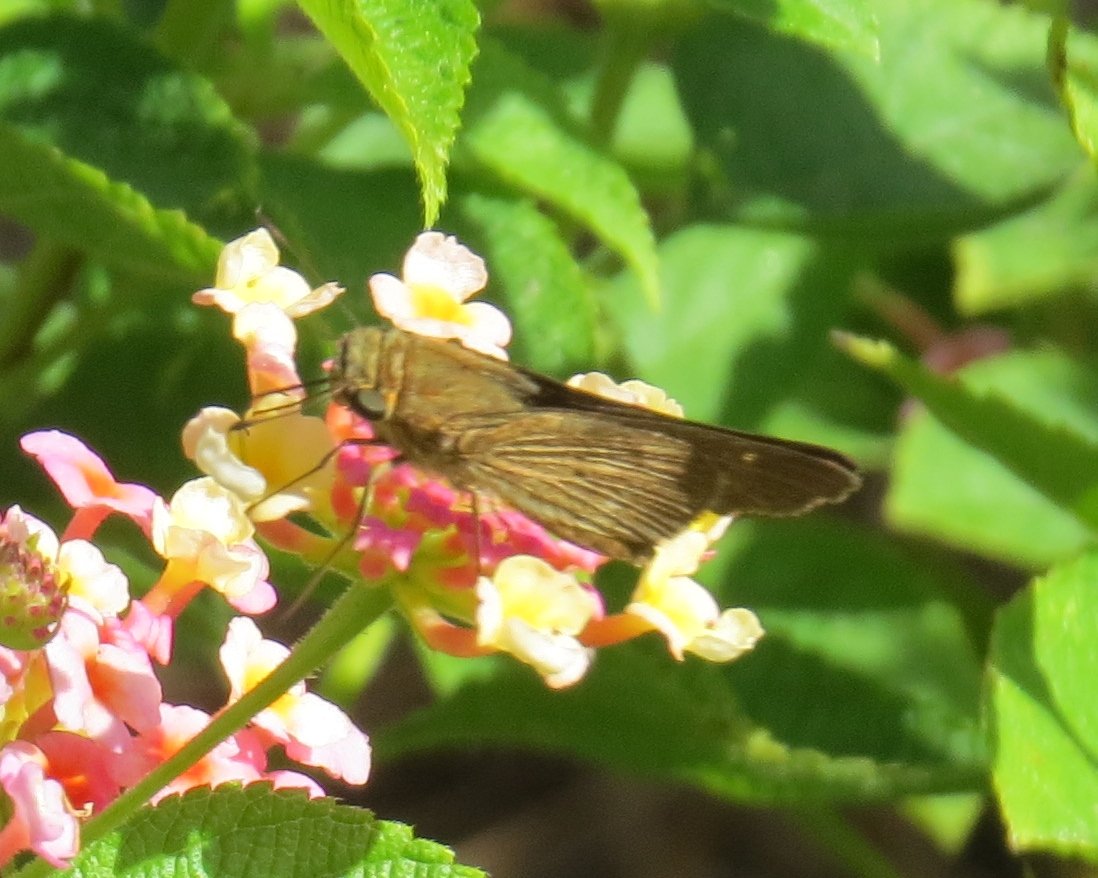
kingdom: Animalia
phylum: Arthropoda
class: Insecta
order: Lepidoptera
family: Hesperiidae
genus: Panoquina
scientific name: Panoquina ocola
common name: Ocola Skipper
